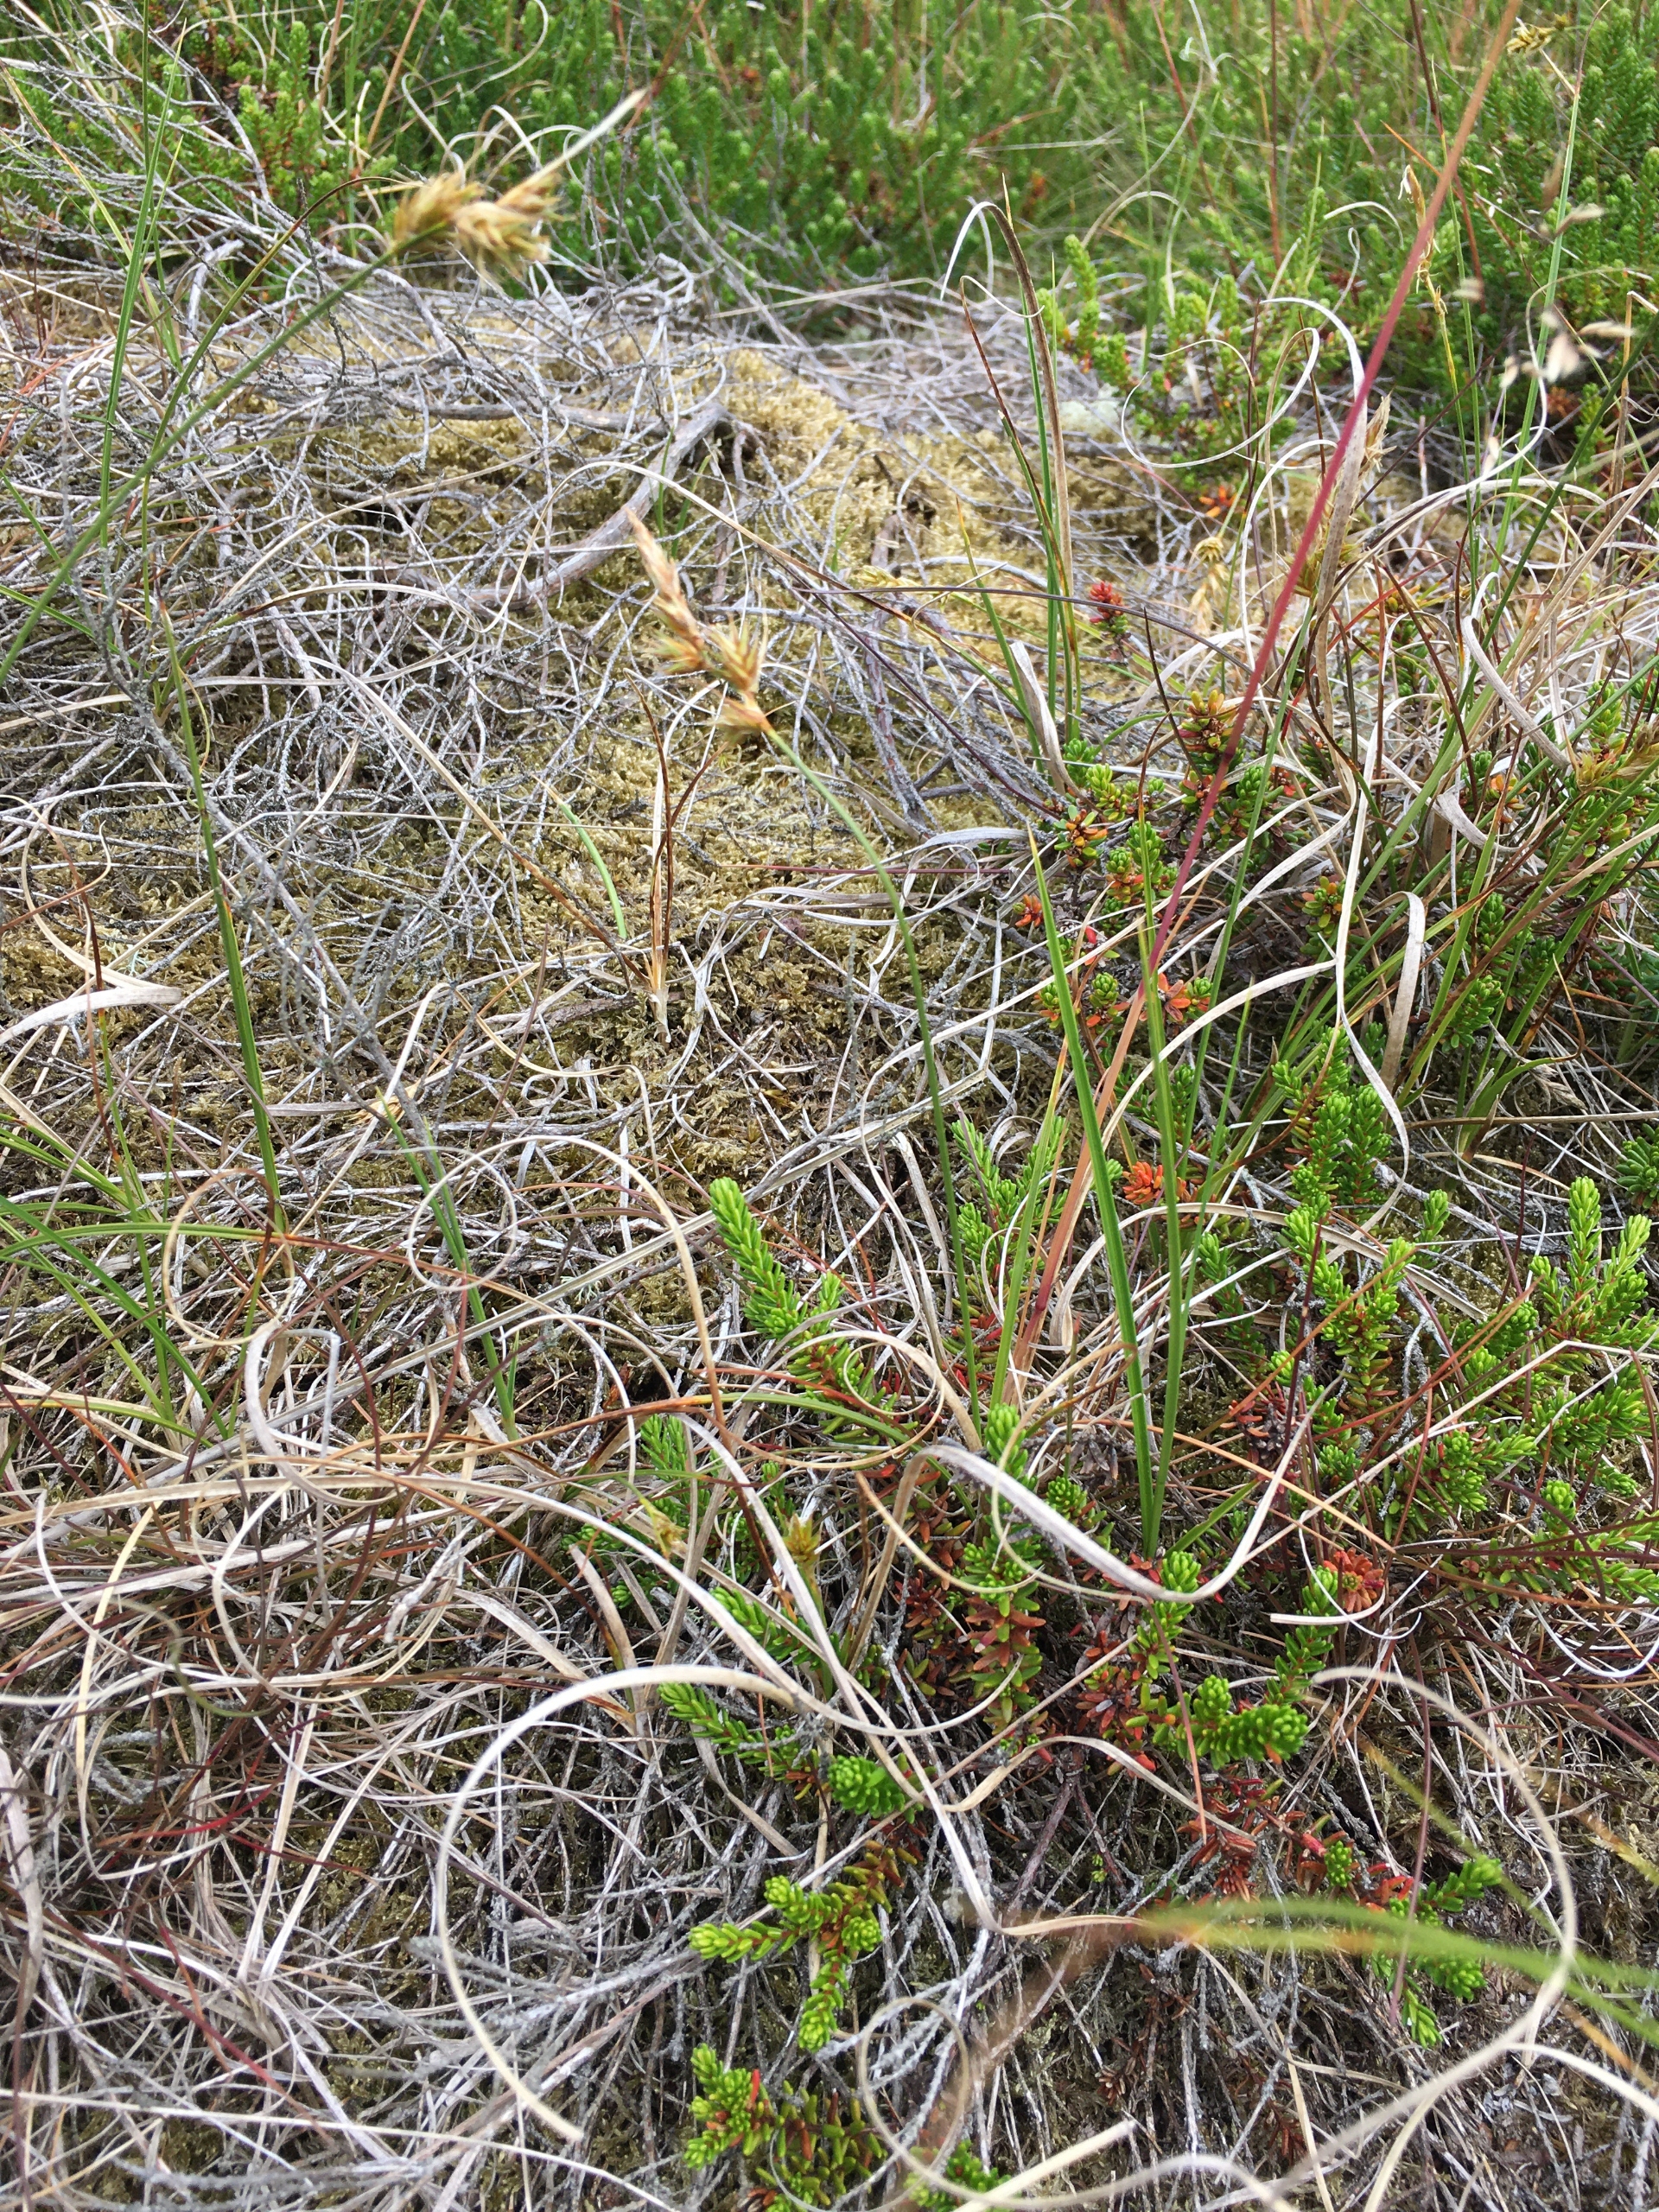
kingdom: Plantae
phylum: Tracheophyta
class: Liliopsida
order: Poales
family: Cyperaceae
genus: Carex
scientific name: Carex arenaria
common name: Sand-star
